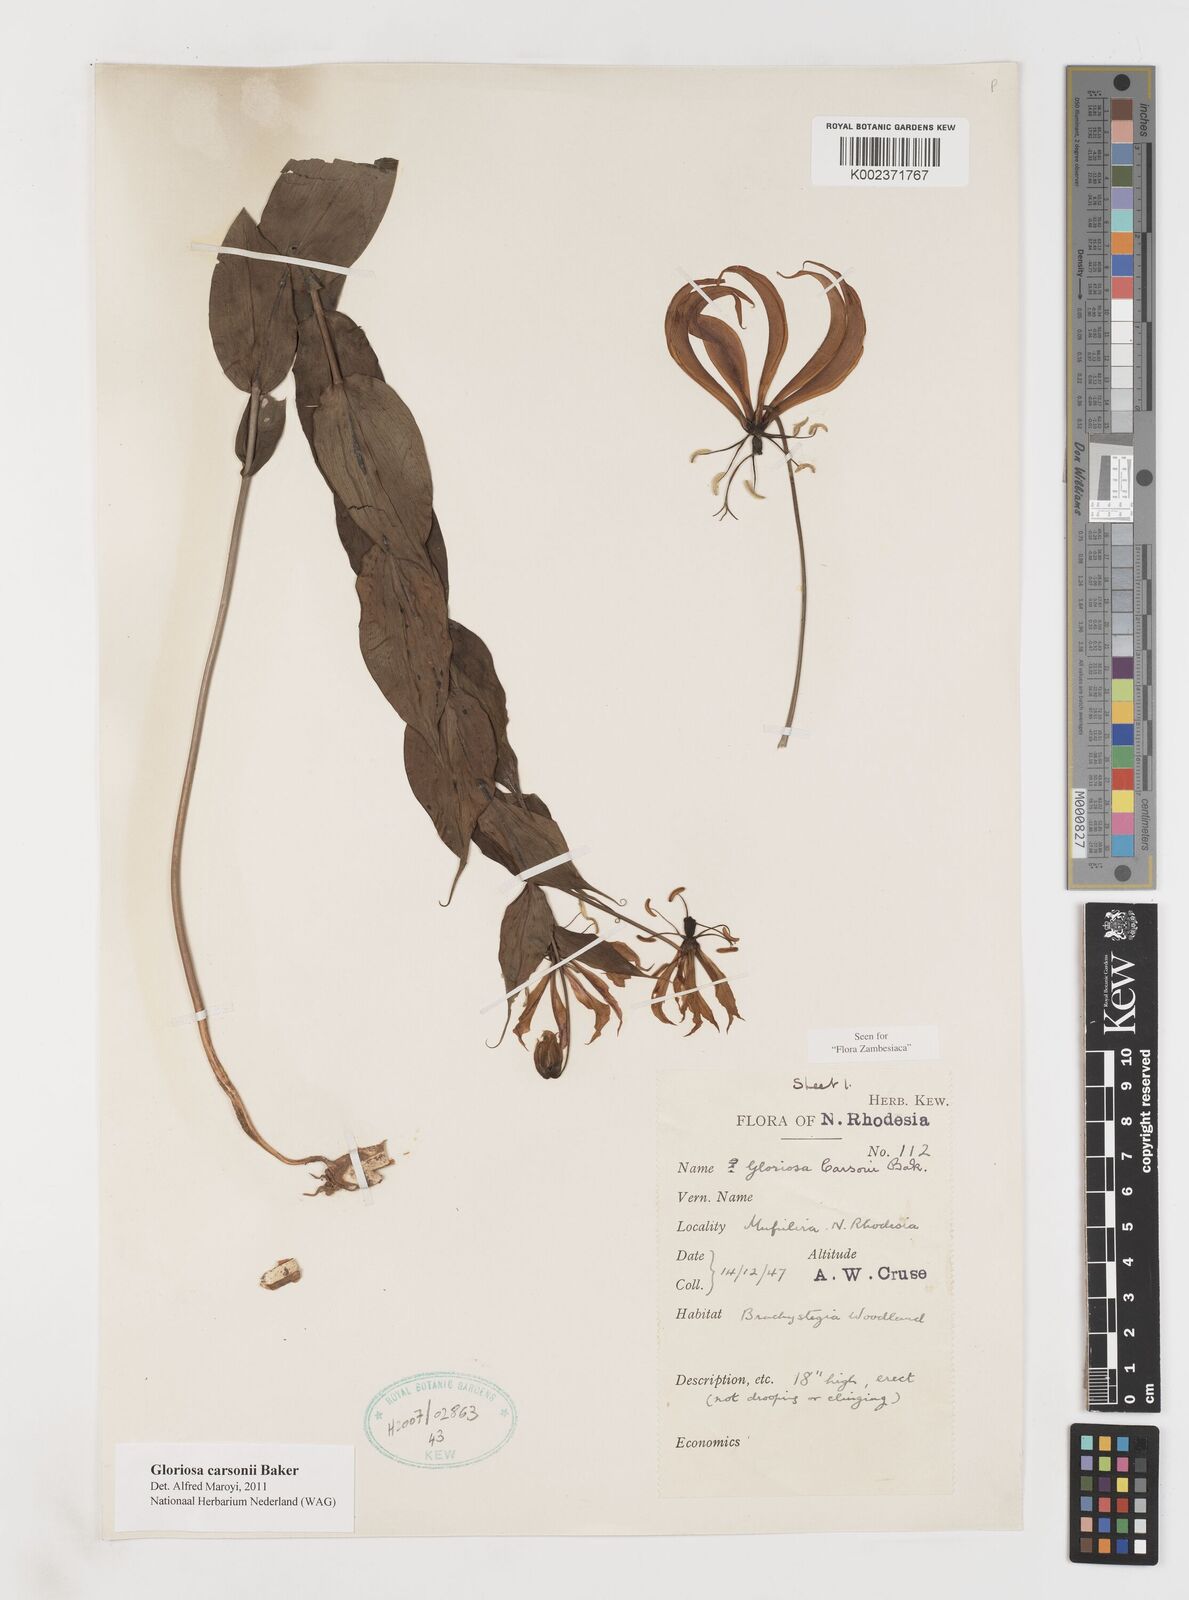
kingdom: Plantae
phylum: Tracheophyta
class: Liliopsida
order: Liliales
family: Colchicaceae
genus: Gloriosa
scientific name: Gloriosa carsonii
